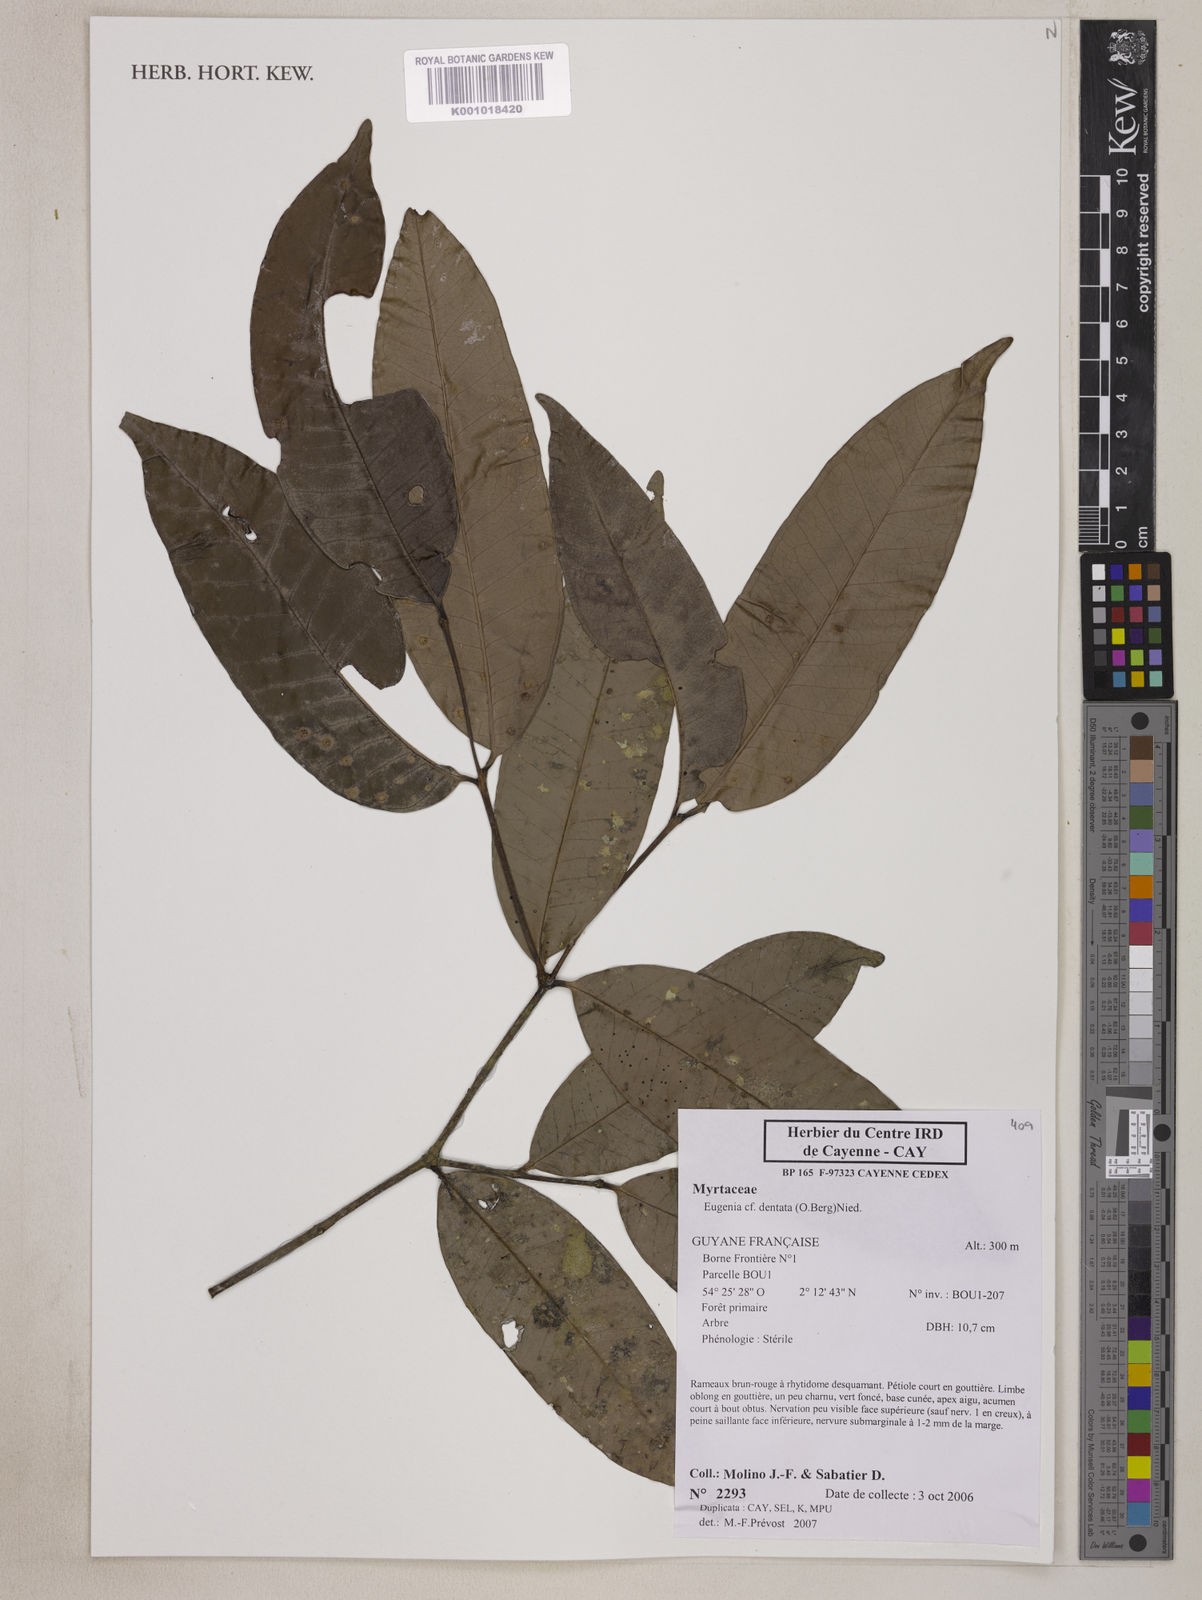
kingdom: Plantae
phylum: Tracheophyta
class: Magnoliopsida
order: Myrtales
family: Myrtaceae
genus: Eugenia
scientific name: Eugenia dentata
